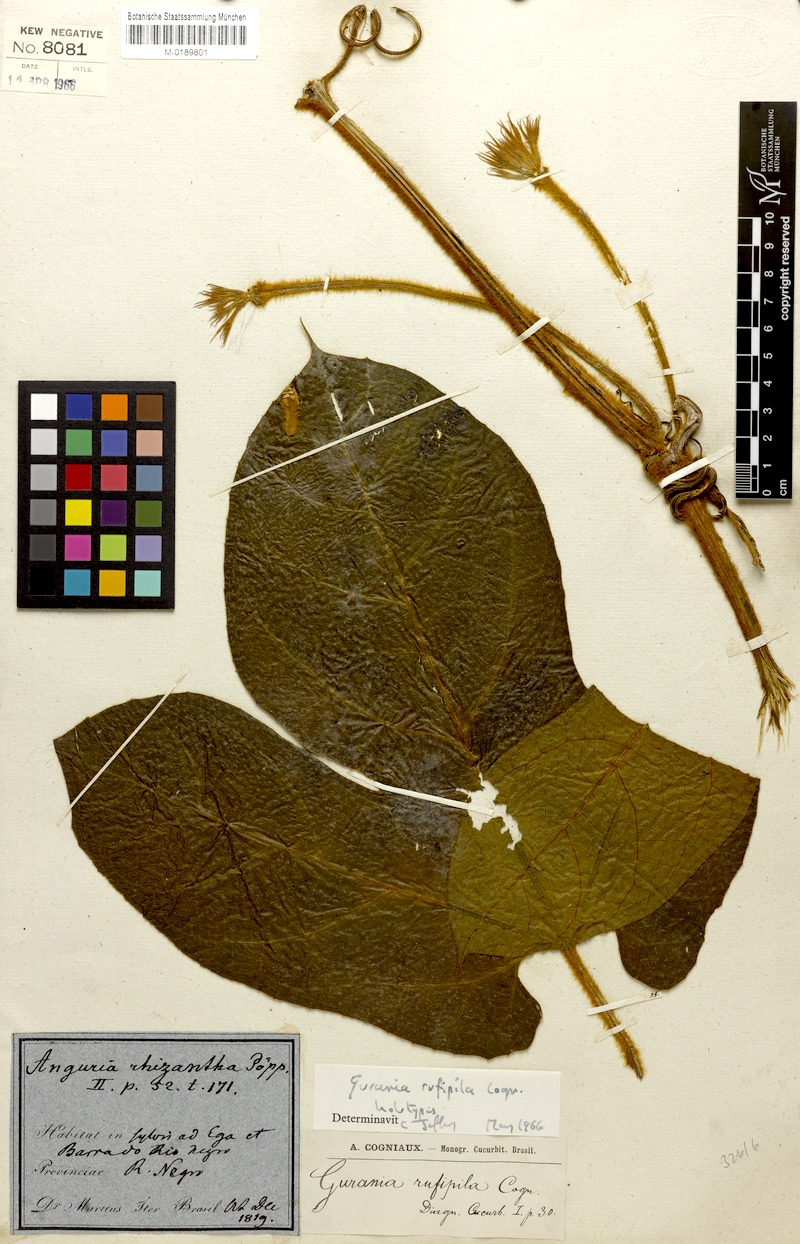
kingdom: Plantae
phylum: Tracheophyta
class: Magnoliopsida
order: Cucurbitales
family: Cucurbitaceae
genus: Gurania
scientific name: Gurania rufipila
